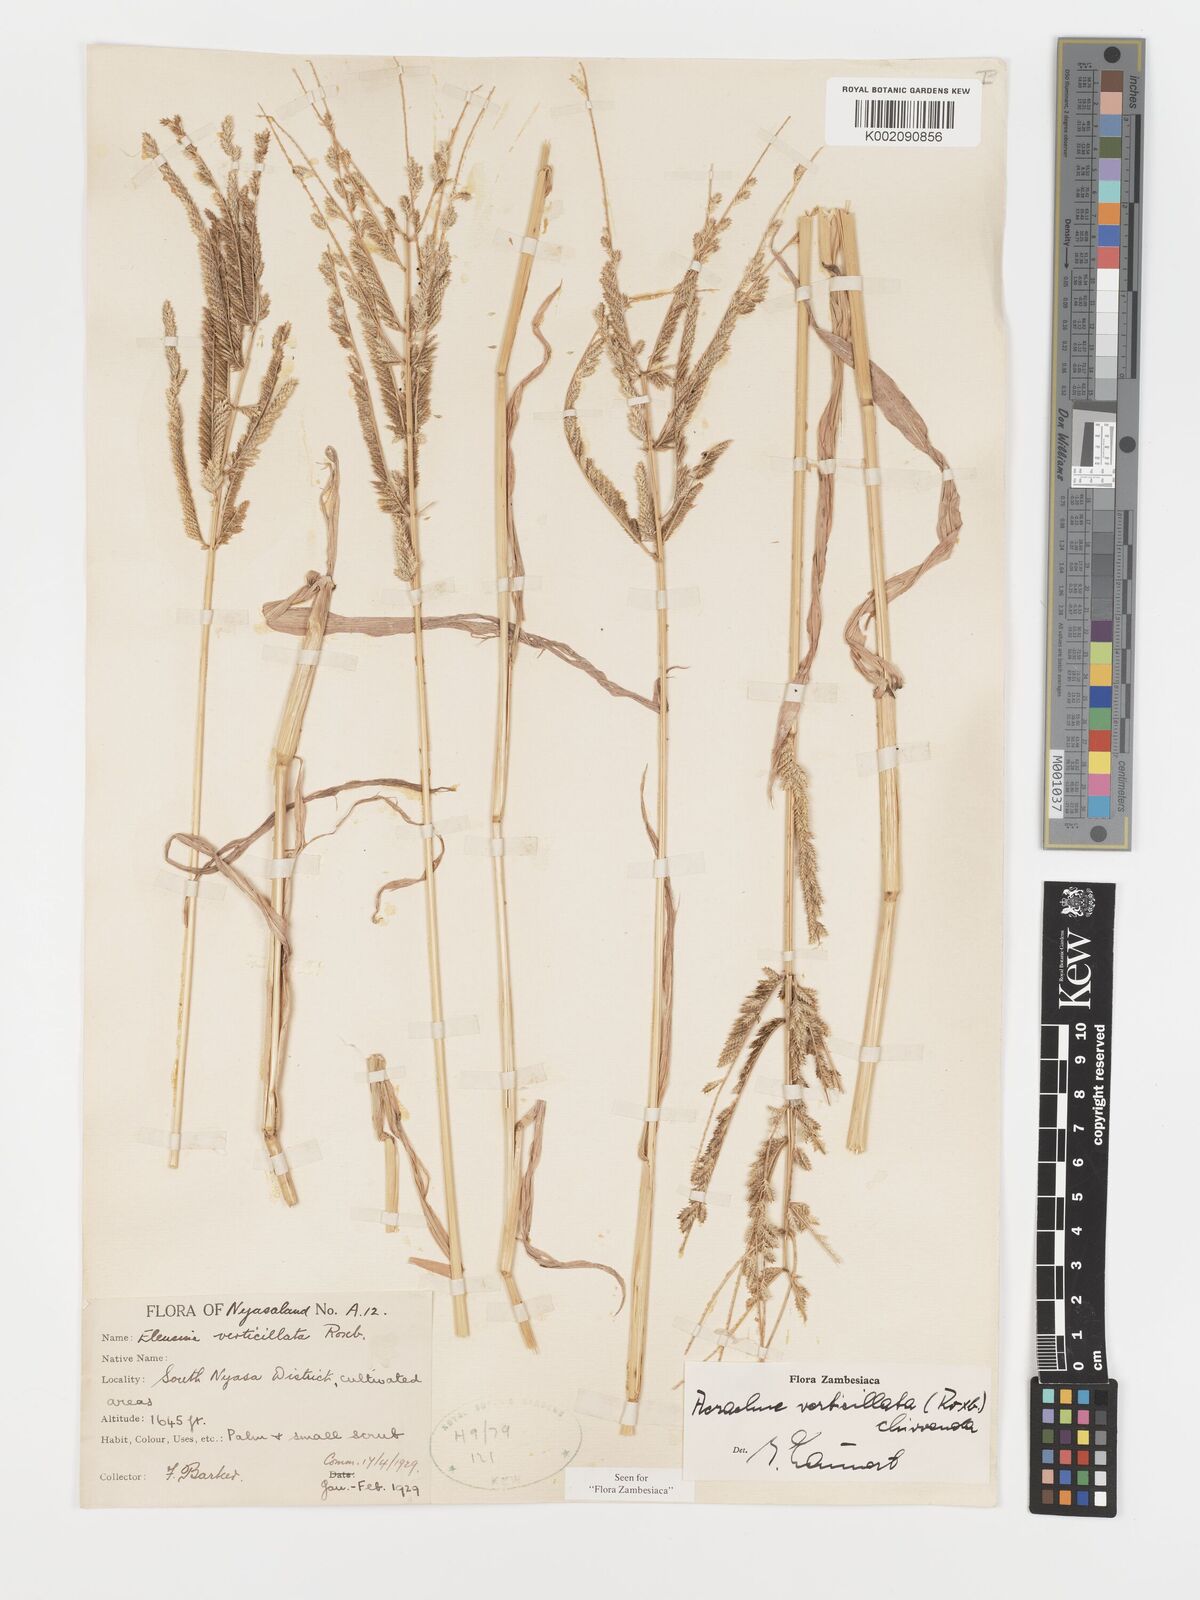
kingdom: Plantae
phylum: Tracheophyta
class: Liliopsida
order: Poales
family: Poaceae
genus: Acrachne
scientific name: Acrachne racemosa
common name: Goosegrass
